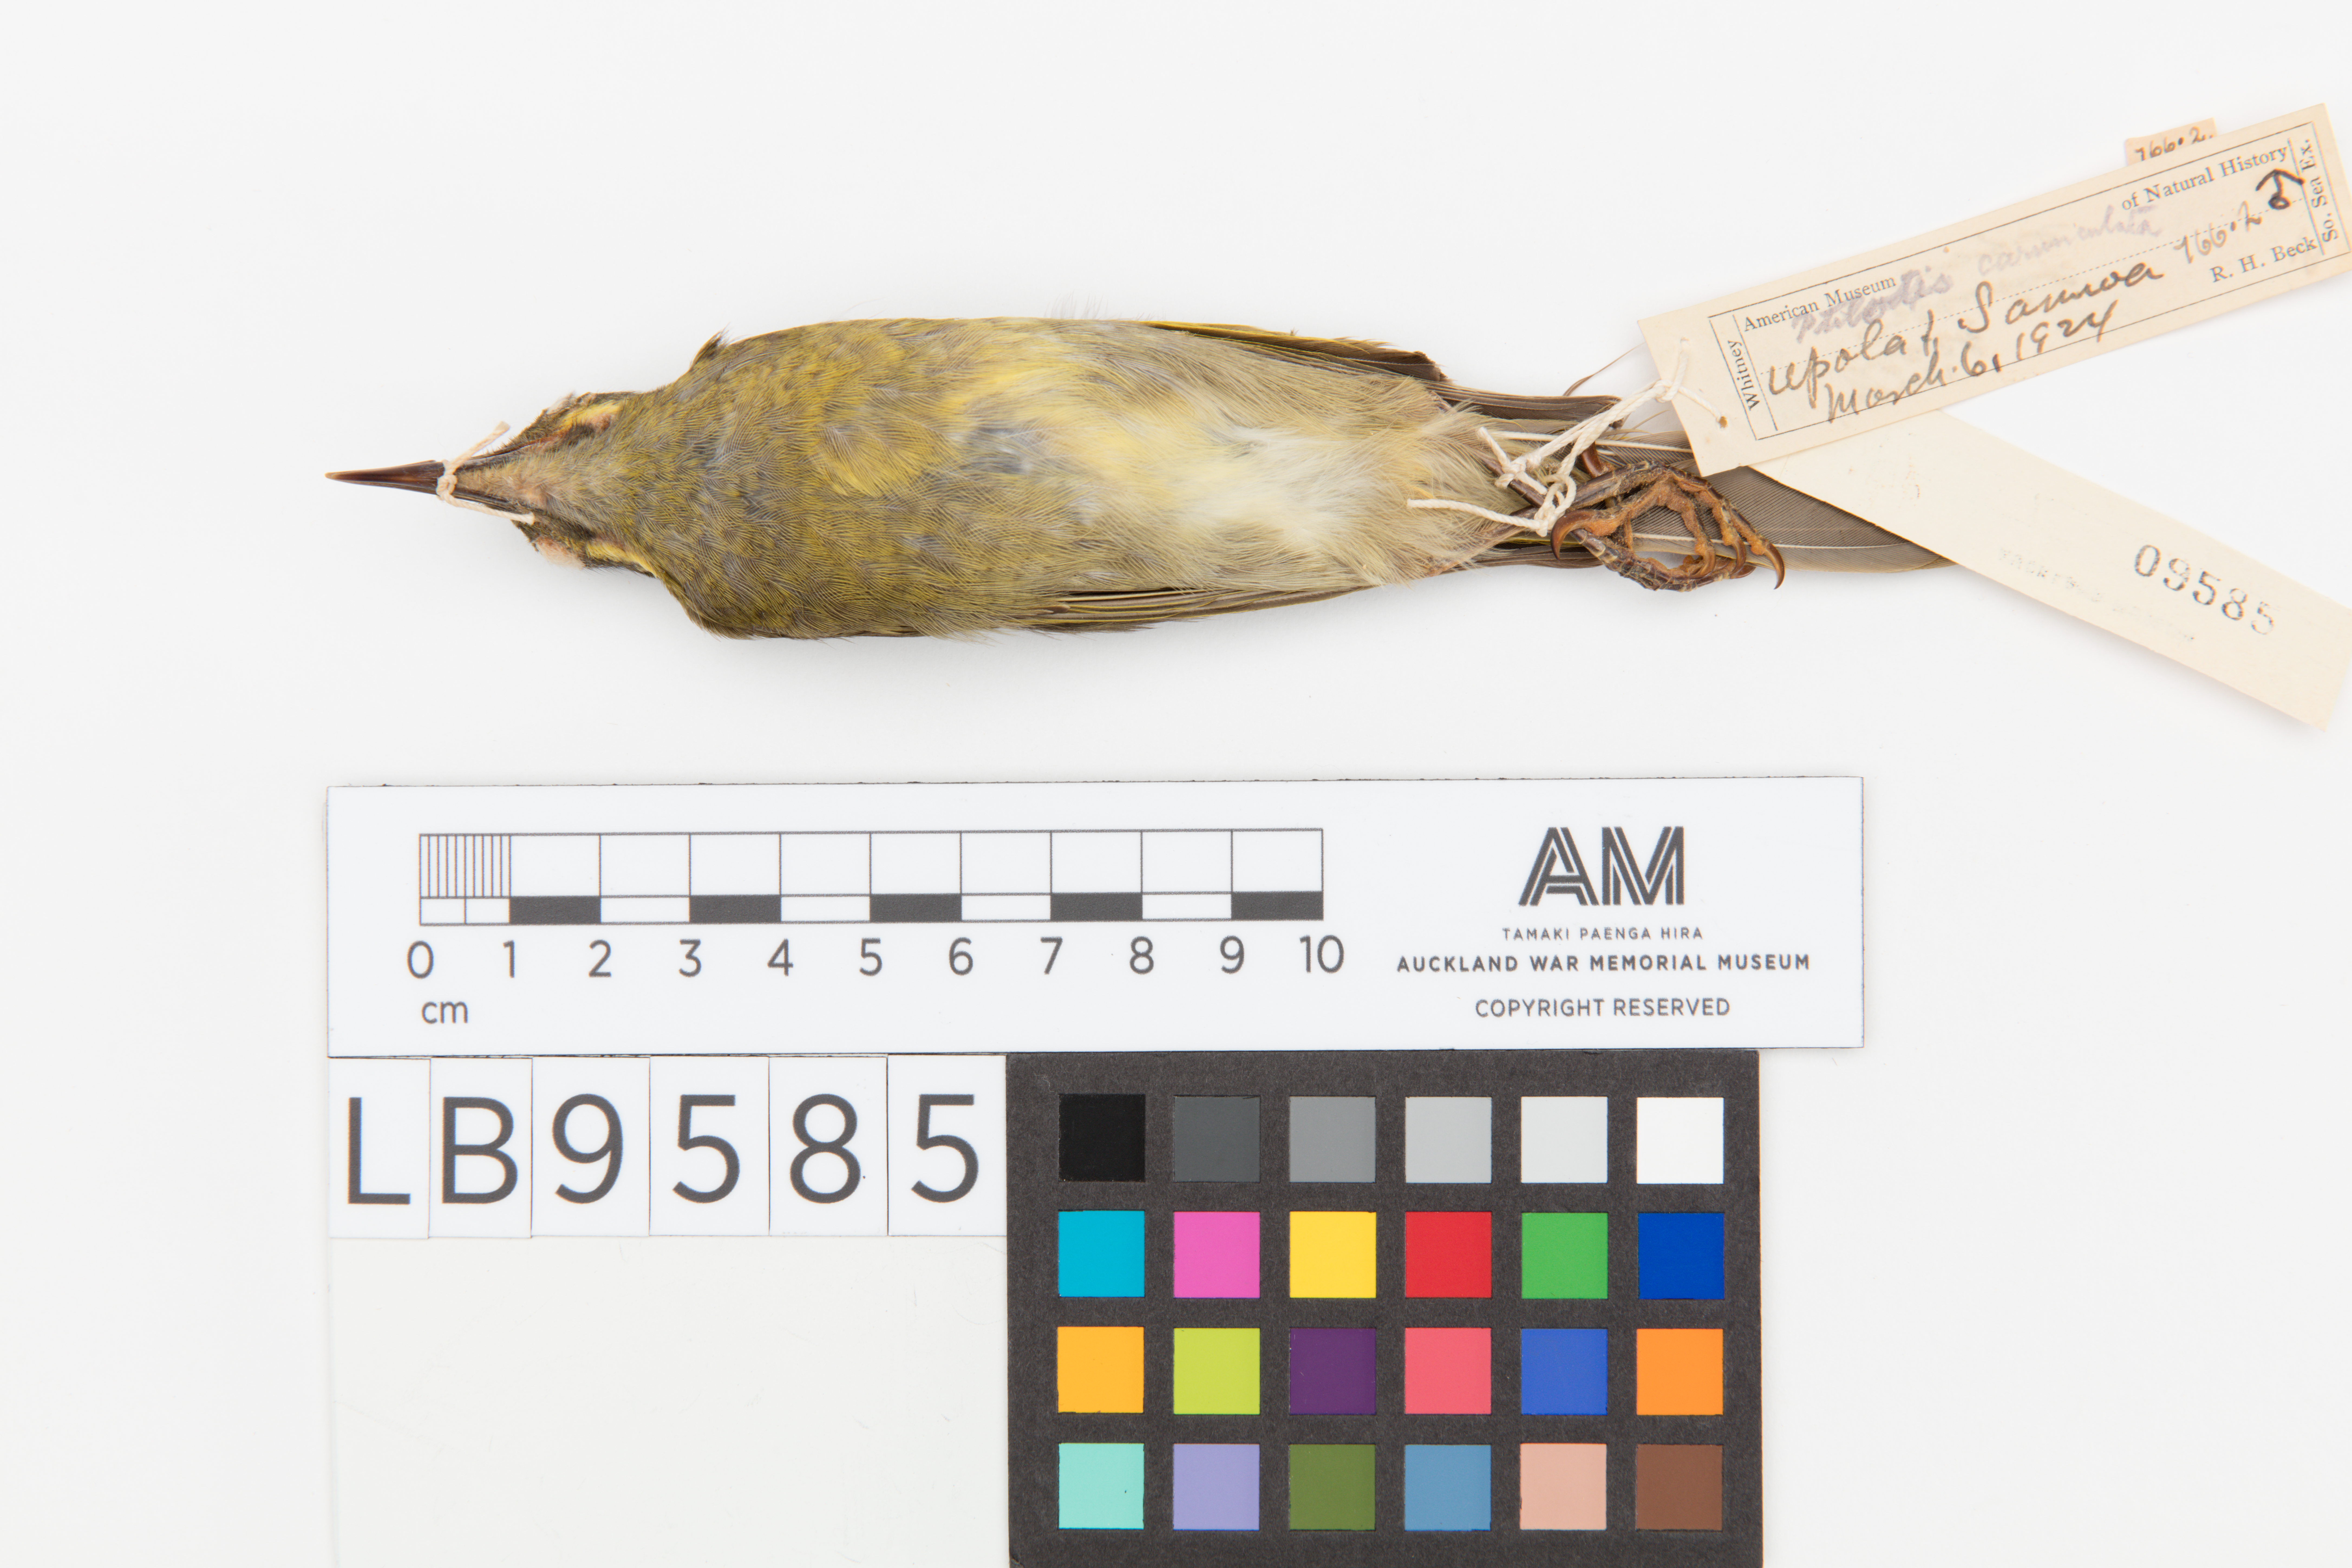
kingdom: Animalia
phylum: Chordata
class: Aves
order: Passeriformes
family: Meliphagidae
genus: Foulehaio
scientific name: Foulehaio carunculatus
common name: Eastern wattled-honeyeater
